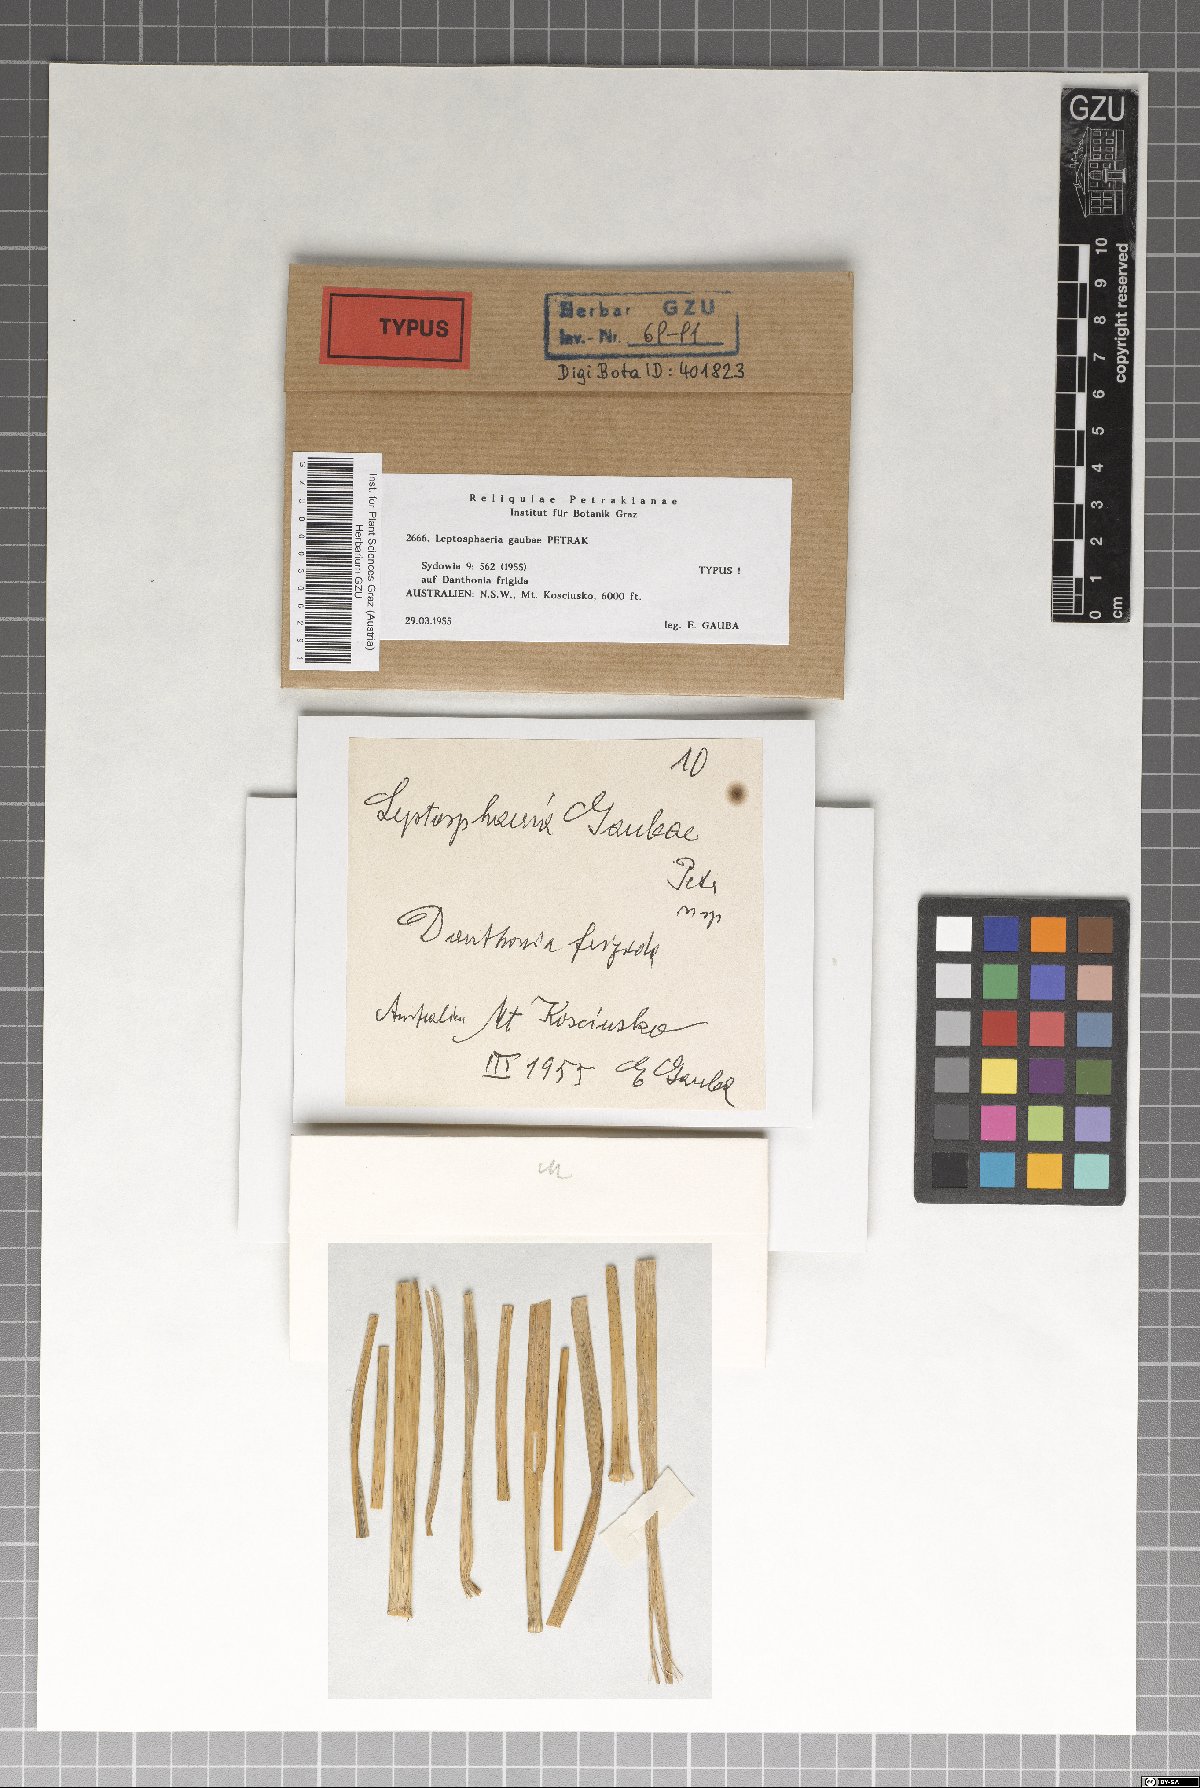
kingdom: Fungi
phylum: Ascomycota
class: Dothideomycetes
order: Pleosporales
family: Leptosphaeriaceae
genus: Leptosphaeria
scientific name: Leptosphaeria gaubae
